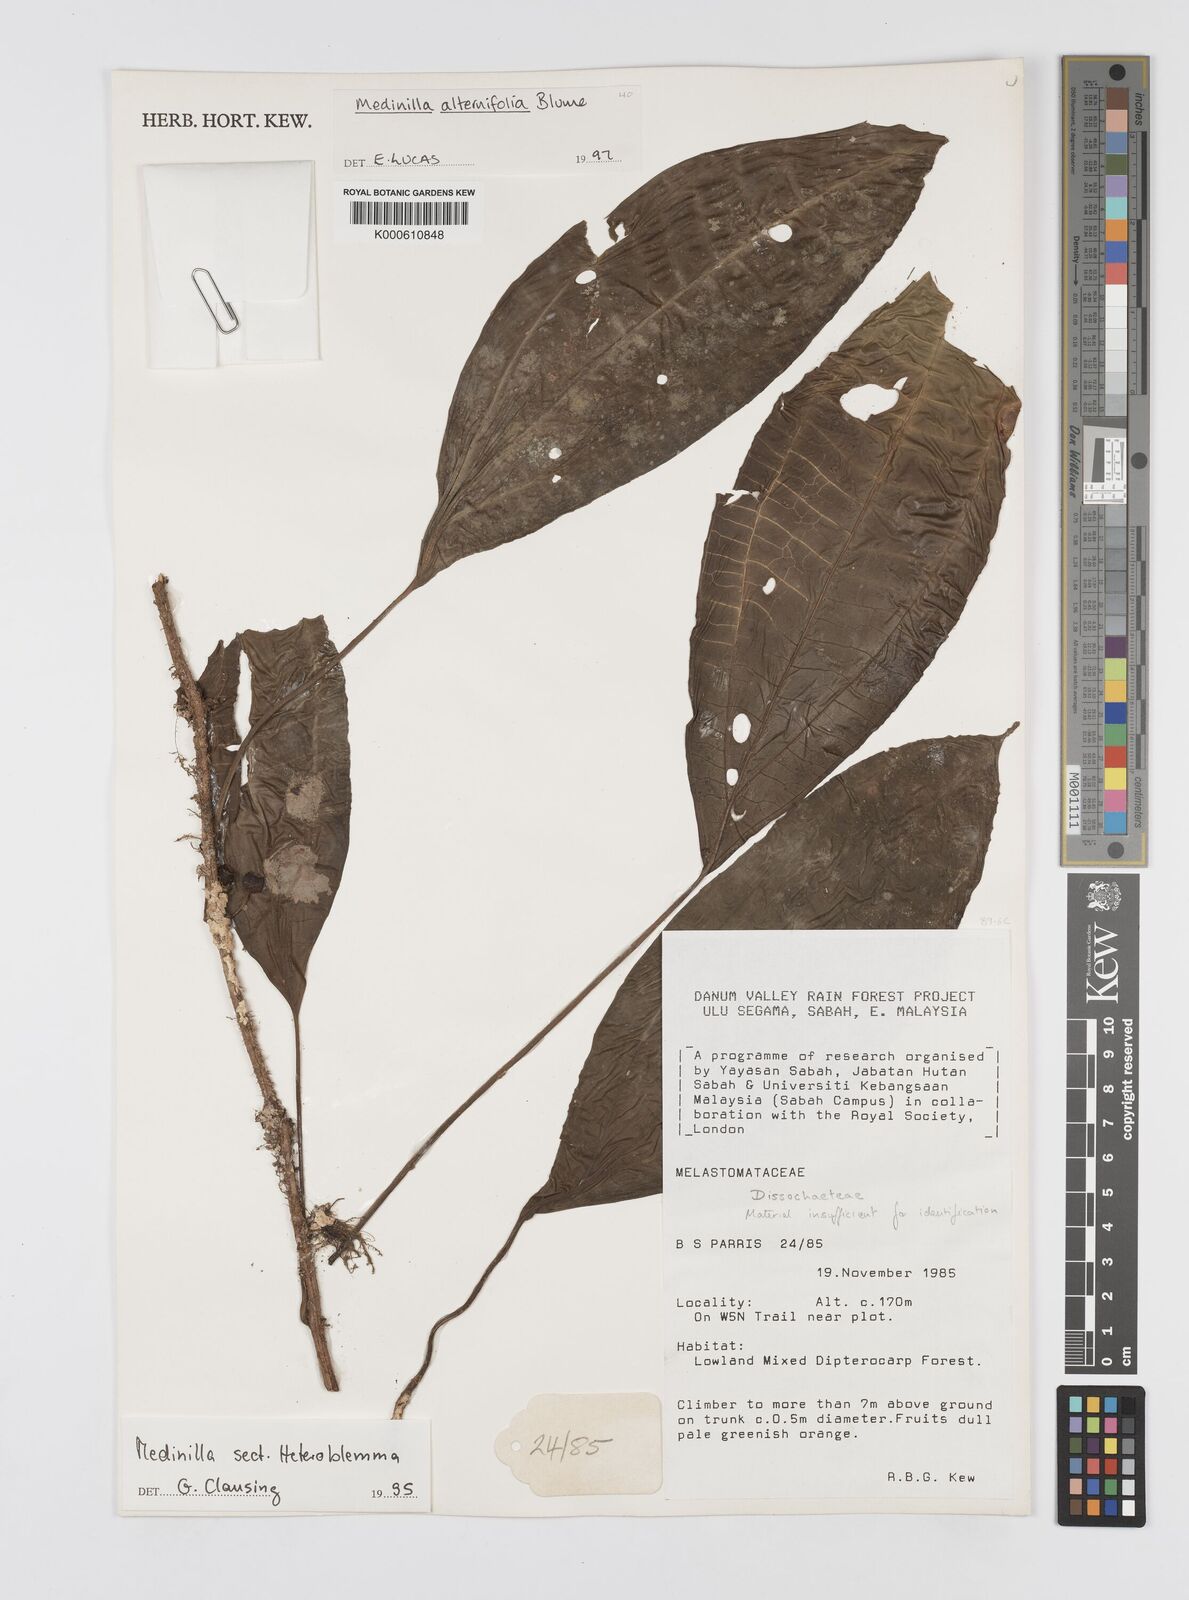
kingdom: Plantae
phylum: Tracheophyta
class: Magnoliopsida
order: Myrtales
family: Melastomataceae
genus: Heteroblemma
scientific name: Heteroblemma alternifolium
